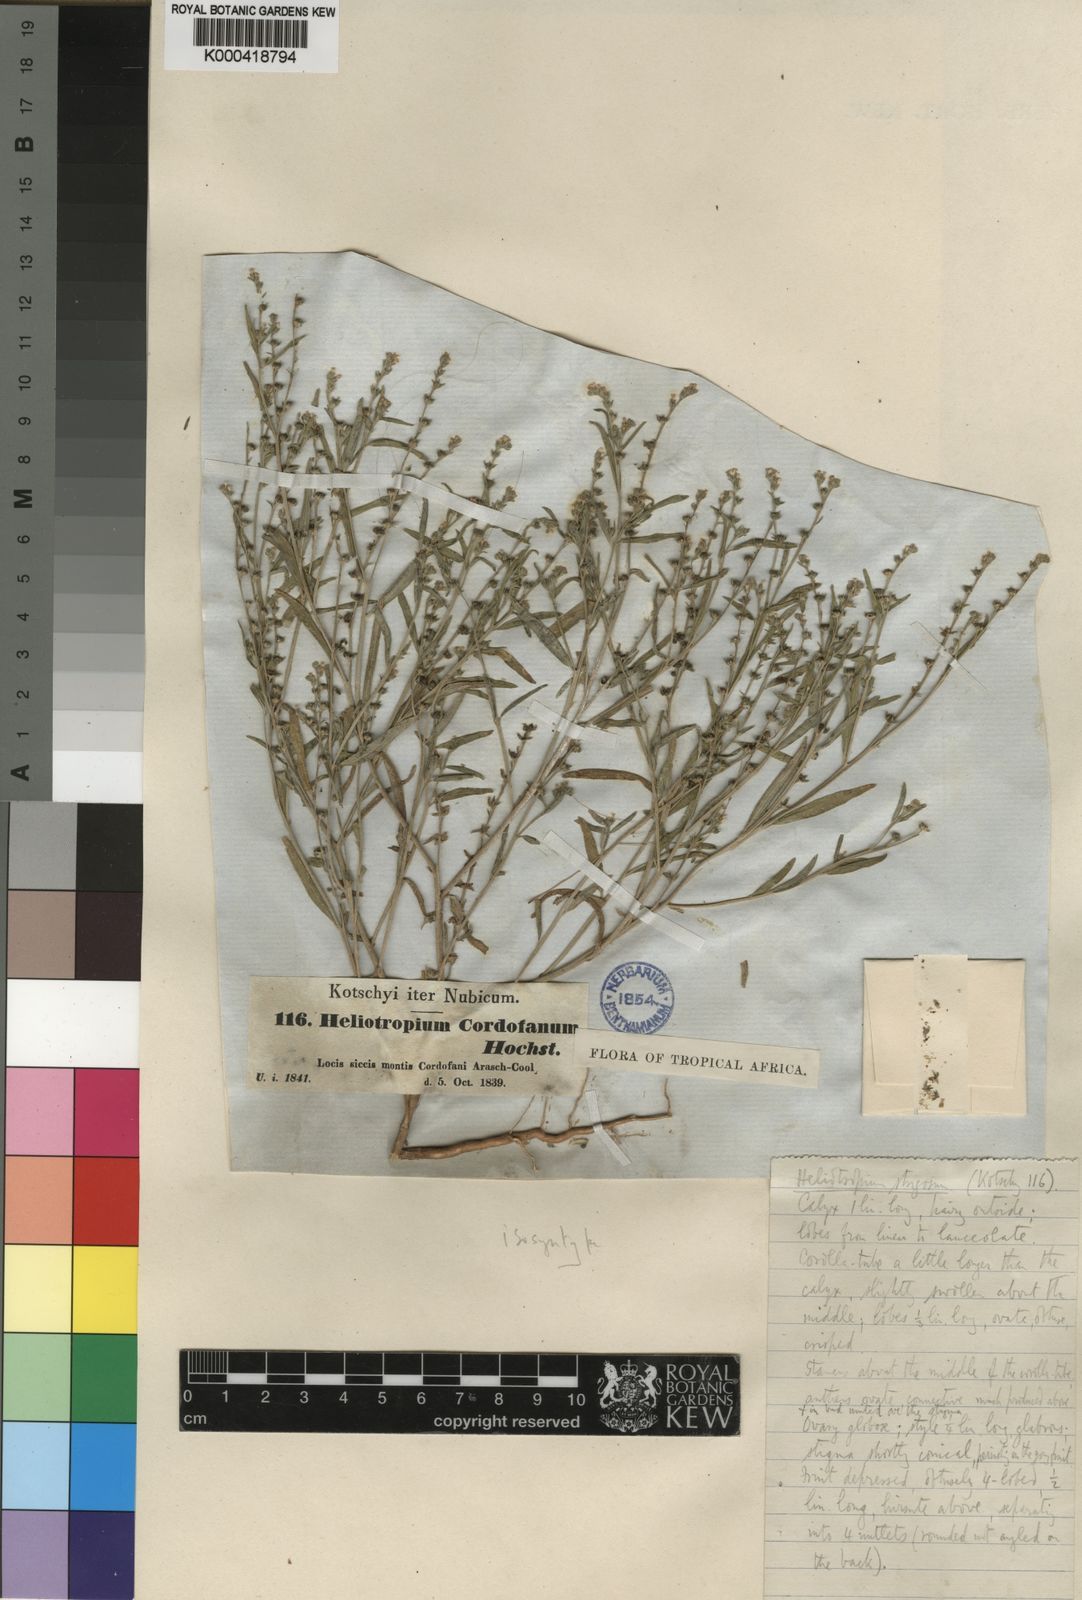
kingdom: Plantae
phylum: Tracheophyta
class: Magnoliopsida
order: Boraginales
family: Heliotropiaceae
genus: Euploca
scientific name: Euploca strigosa
